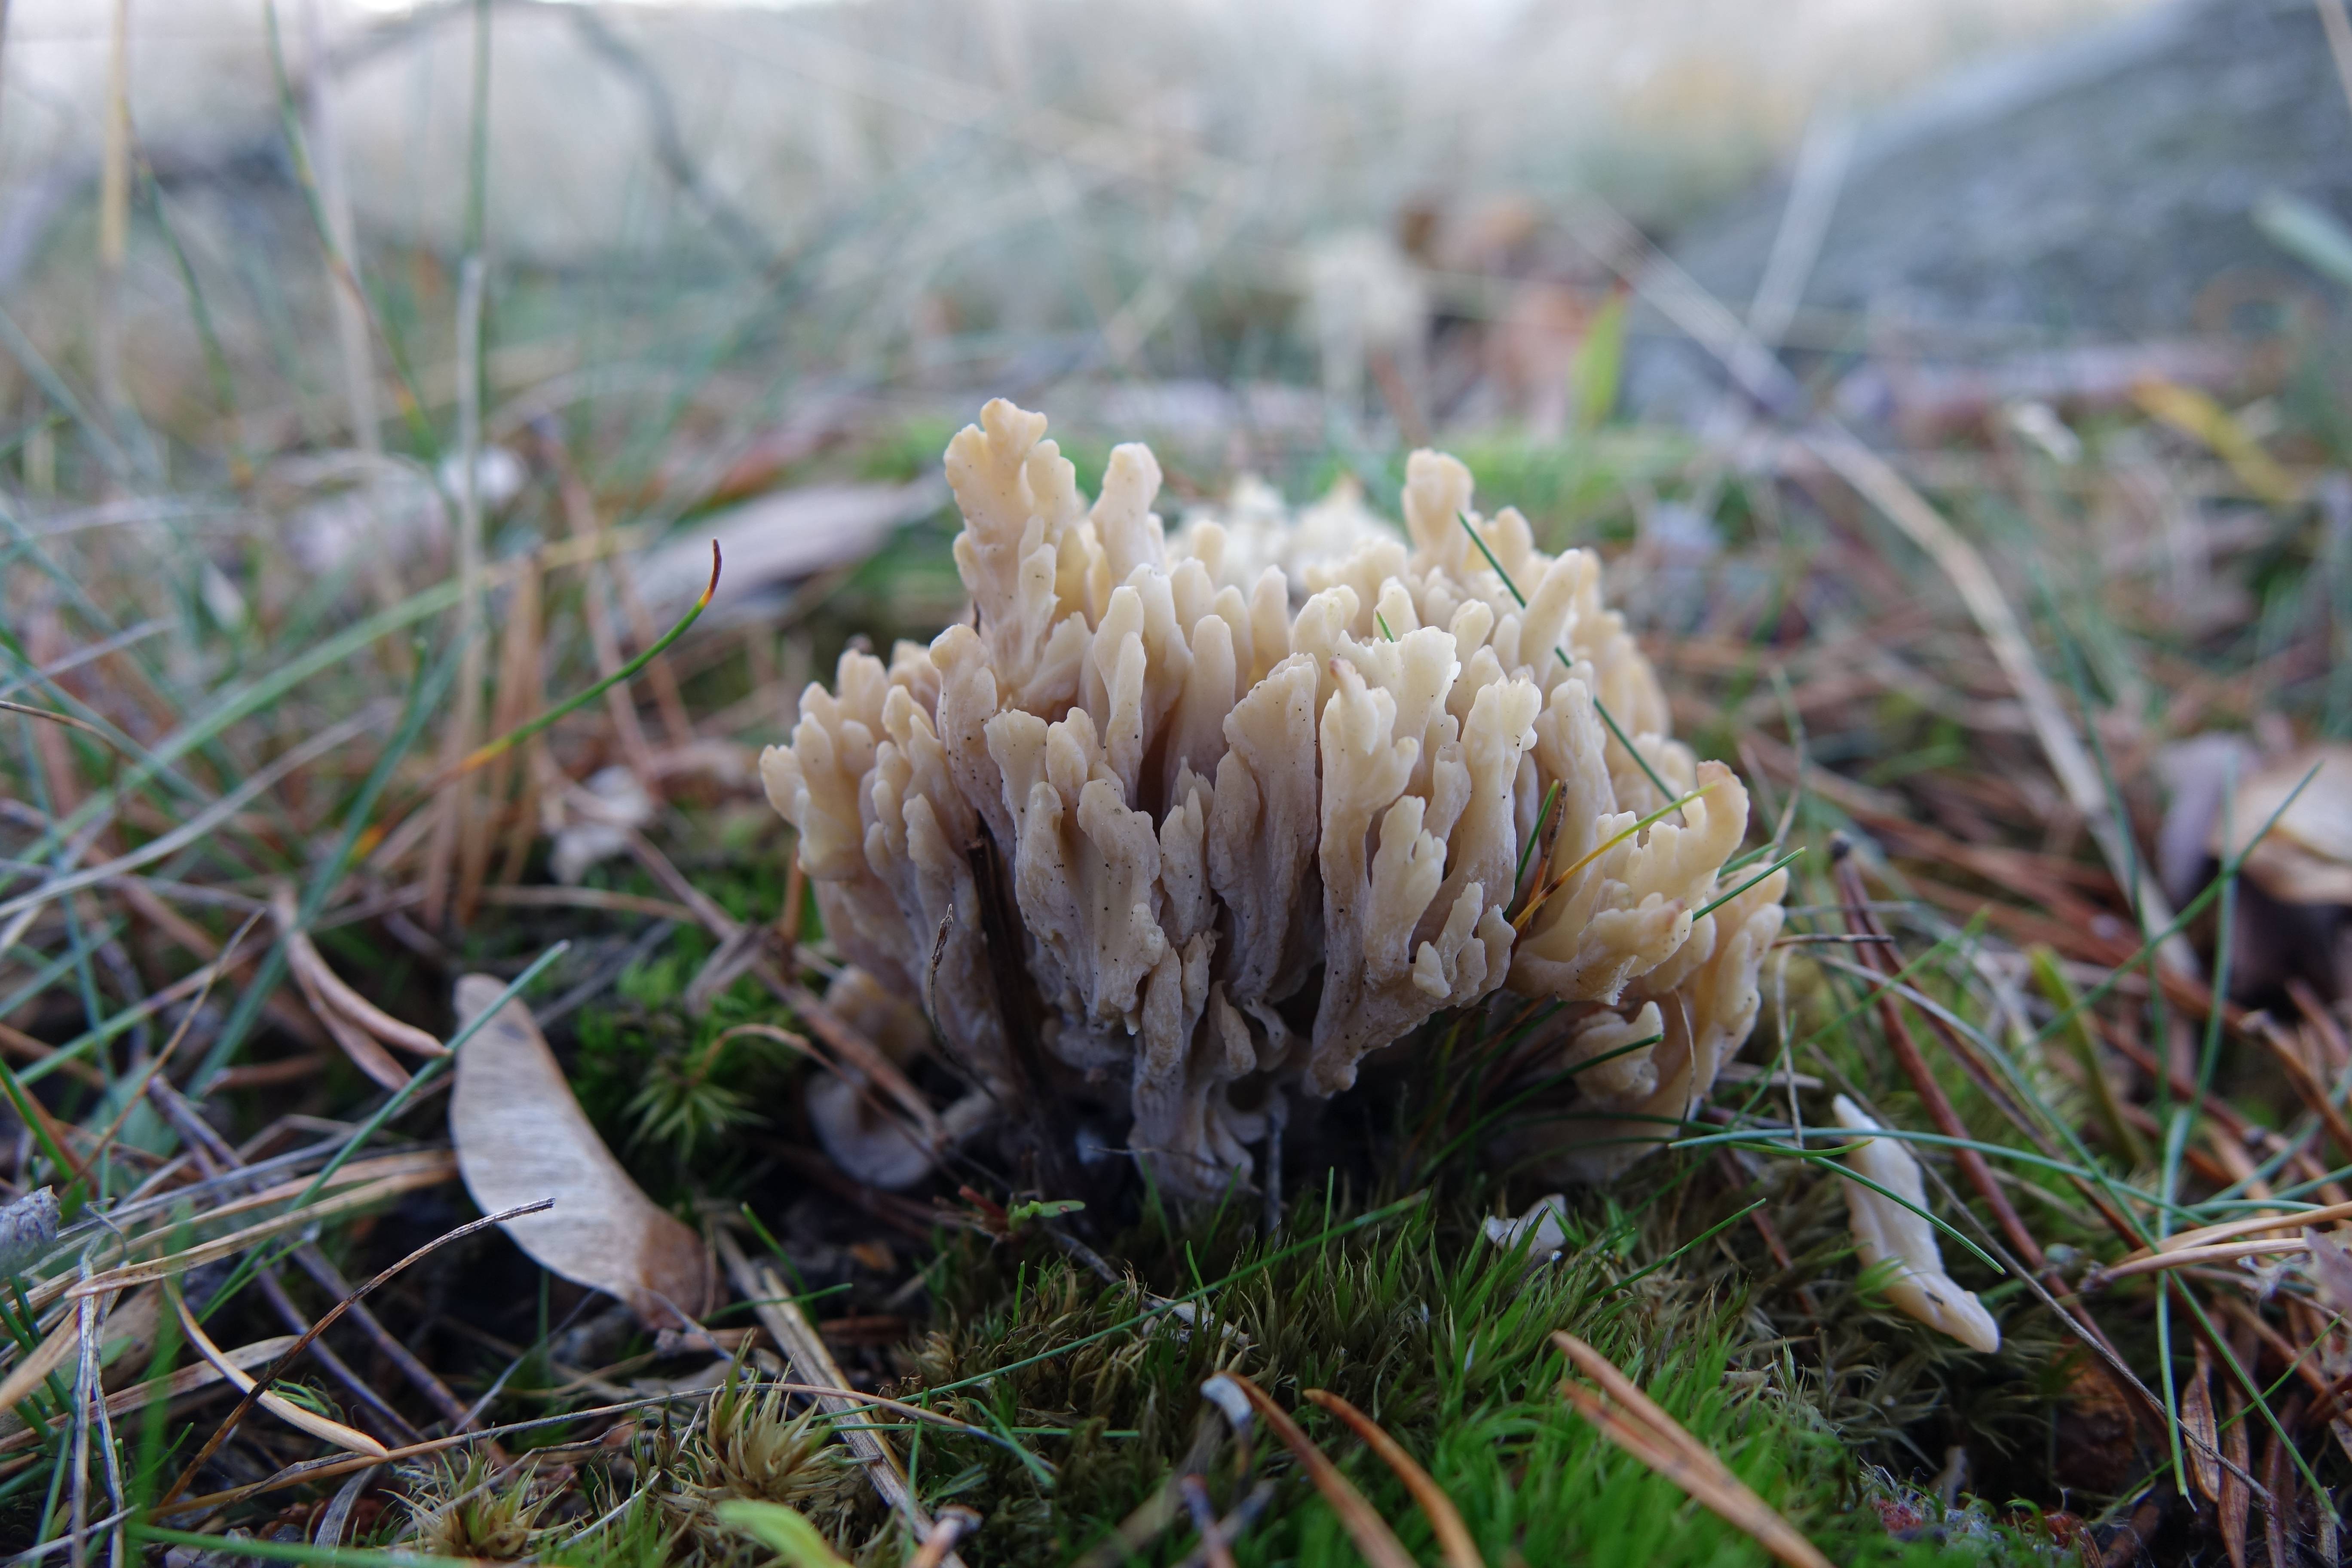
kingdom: Fungi
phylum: Basidiomycota
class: Agaricomycetes
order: Cantharellales
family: Hydnaceae
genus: Clavulina
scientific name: Clavulina cinerea
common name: Grey coral
